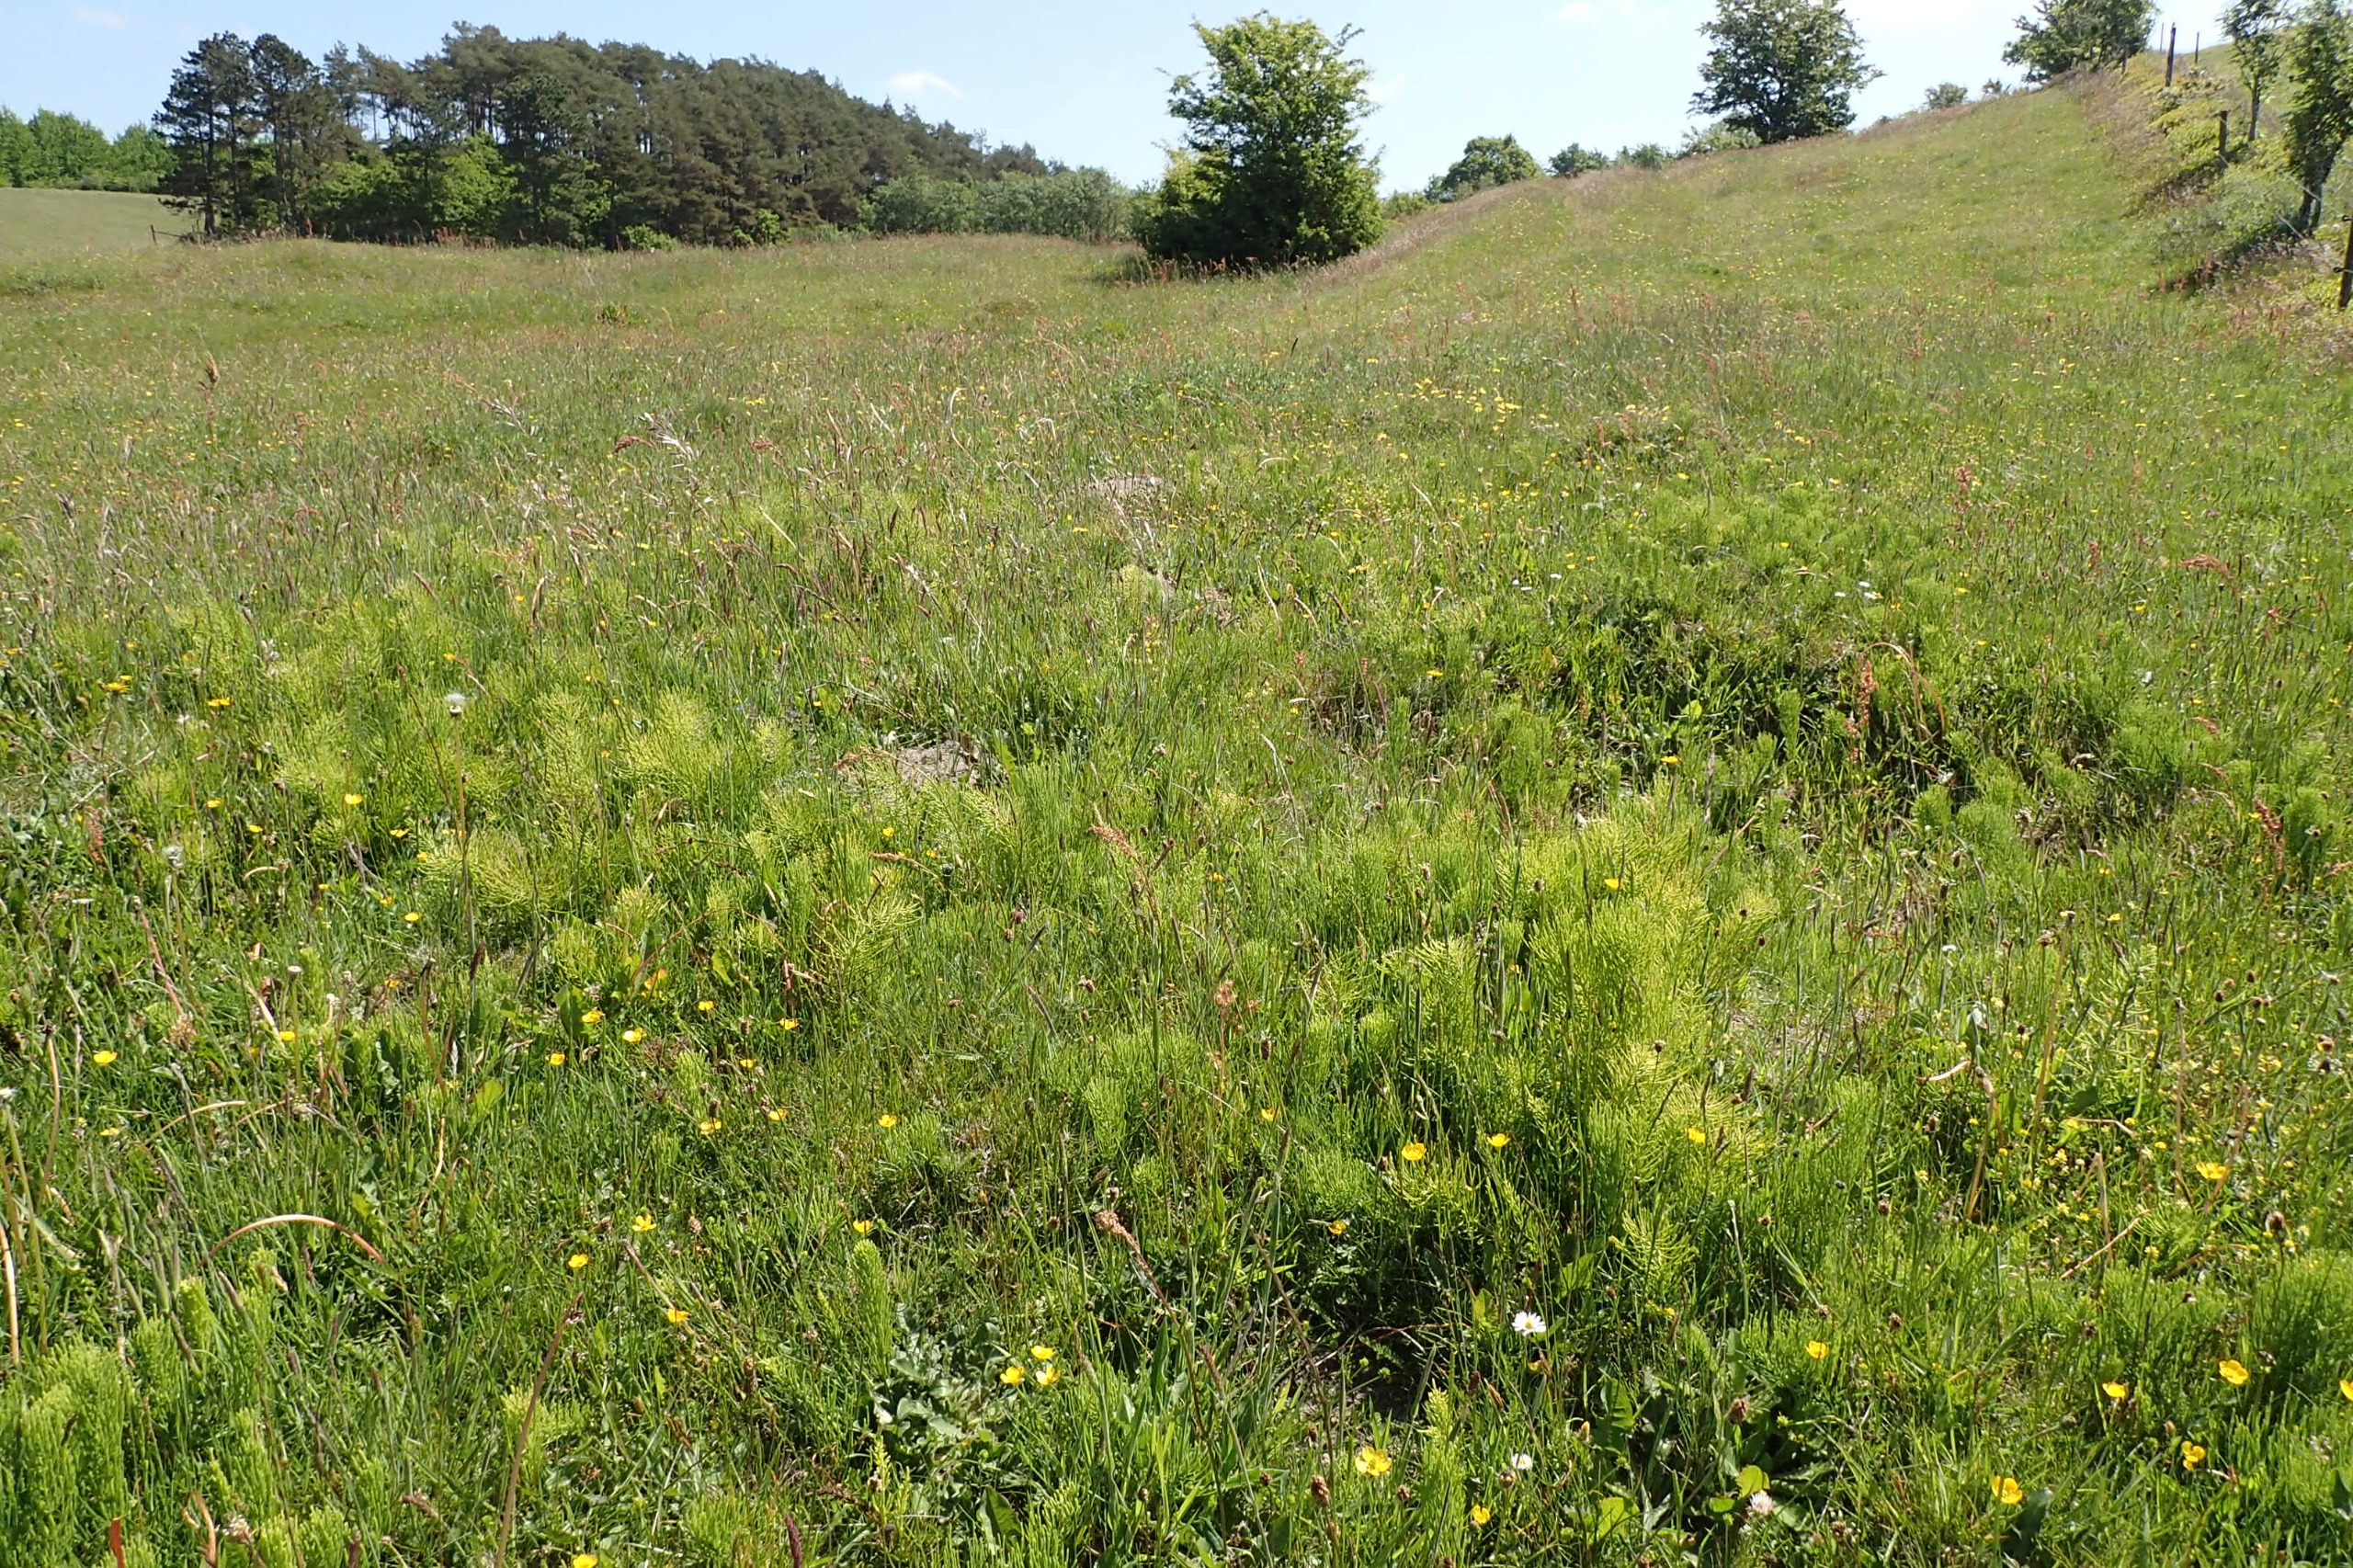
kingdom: Plantae
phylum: Tracheophyta
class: Polypodiopsida
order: Equisetales
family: Equisetaceae
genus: Equisetum
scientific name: Equisetum arvense
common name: Ager-padderok
